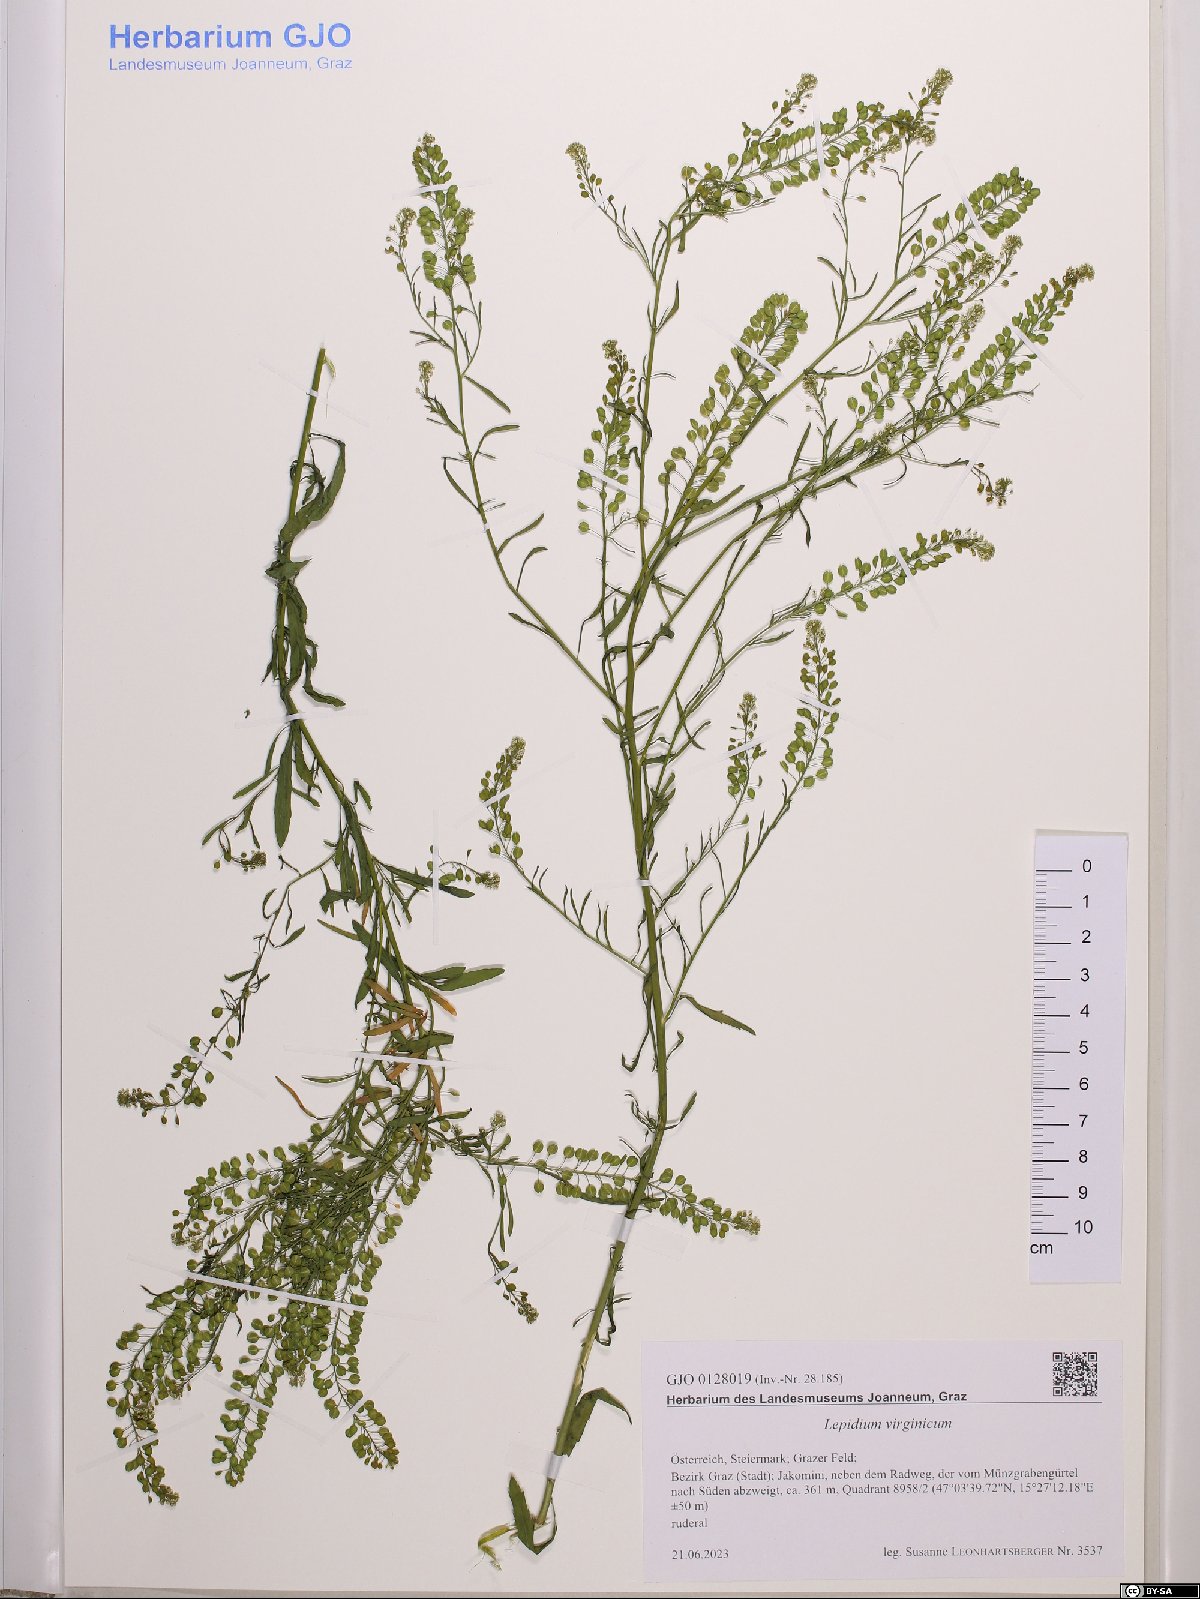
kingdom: Plantae
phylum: Tracheophyta
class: Magnoliopsida
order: Brassicales
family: Brassicaceae
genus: Lepidium
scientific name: Lepidium virginicum
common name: Least pepperwort
